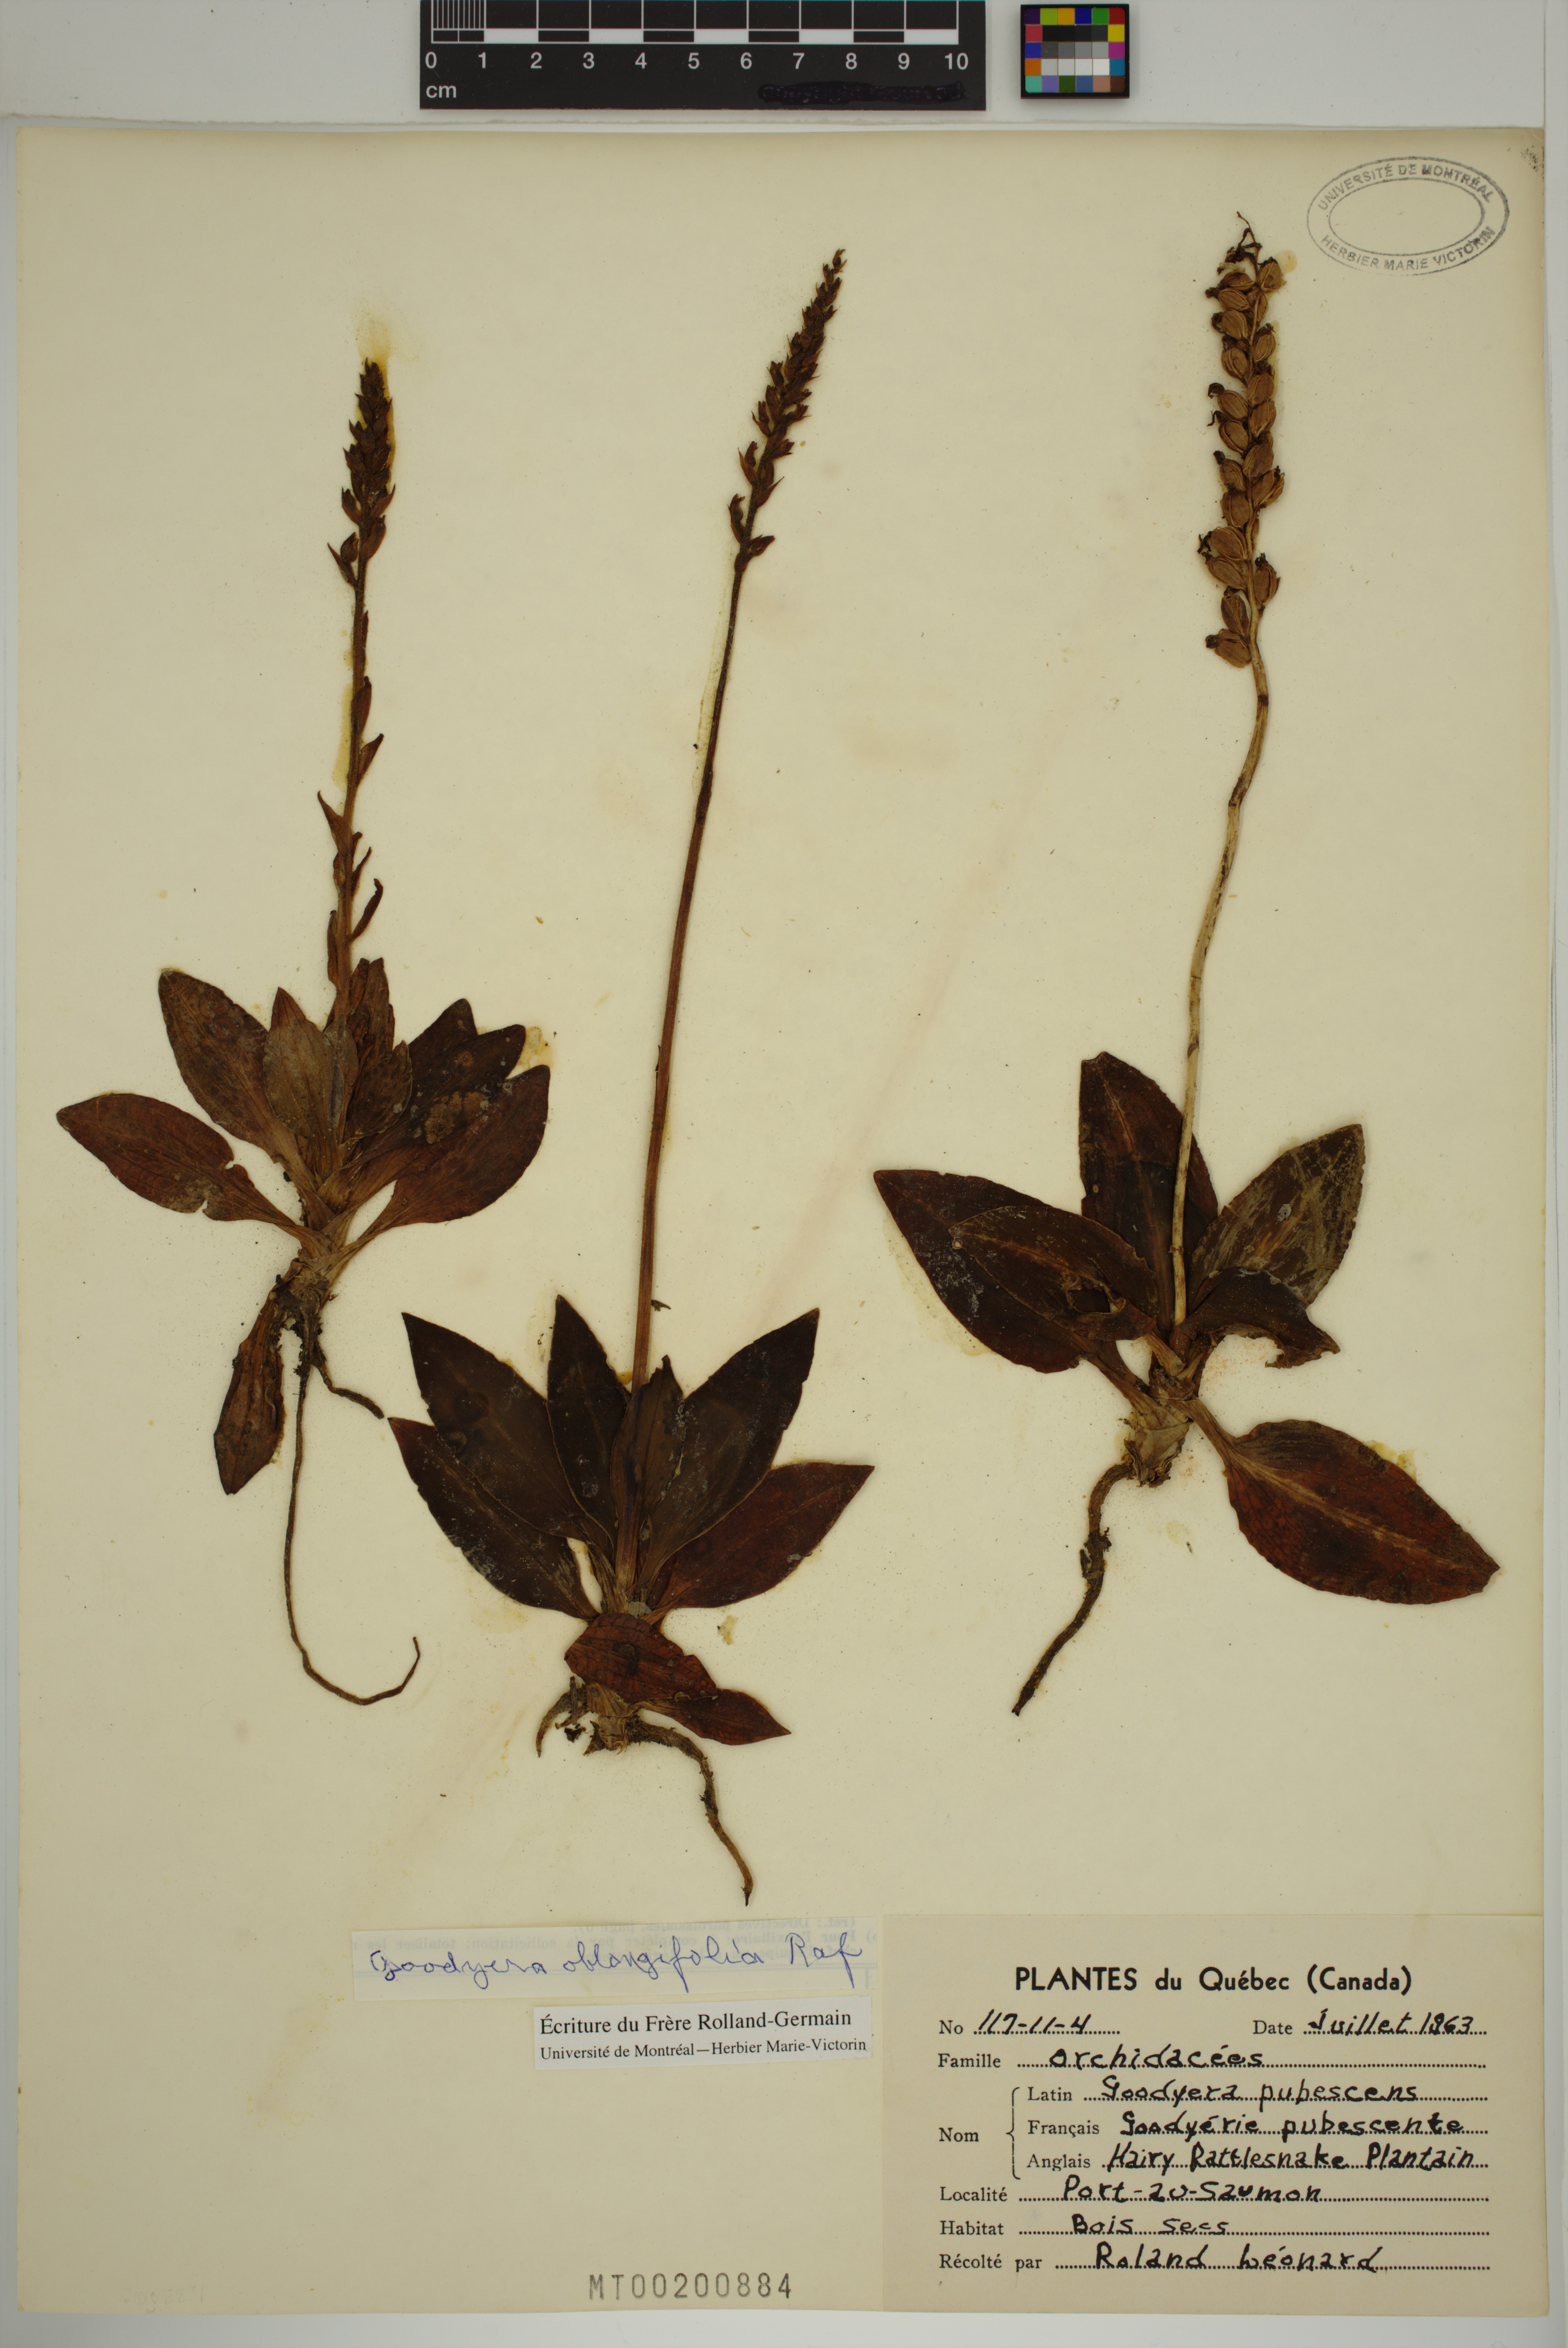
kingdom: Plantae
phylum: Tracheophyta
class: Liliopsida
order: Asparagales
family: Orchidaceae
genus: Goodyera
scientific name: Goodyera oblongifolia
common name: Giant rattlesnake-plantain
